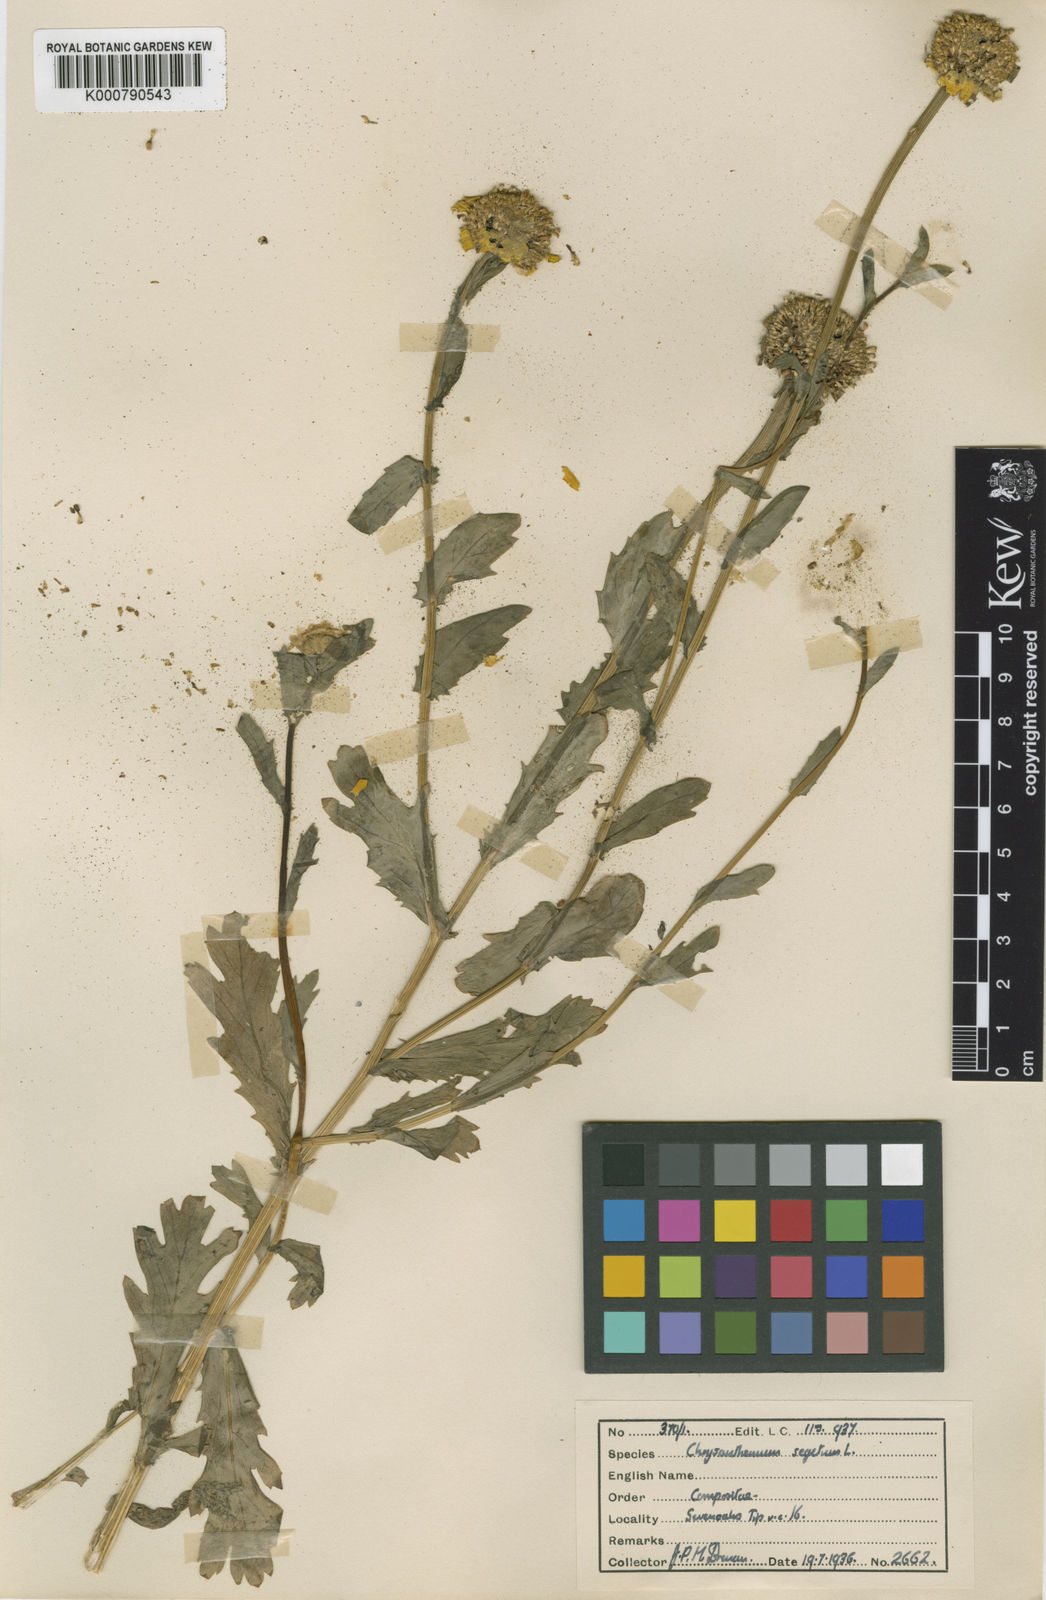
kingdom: Plantae
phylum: Tracheophyta
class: Magnoliopsida
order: Asterales
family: Asteraceae
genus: Glebionis
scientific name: Glebionis
